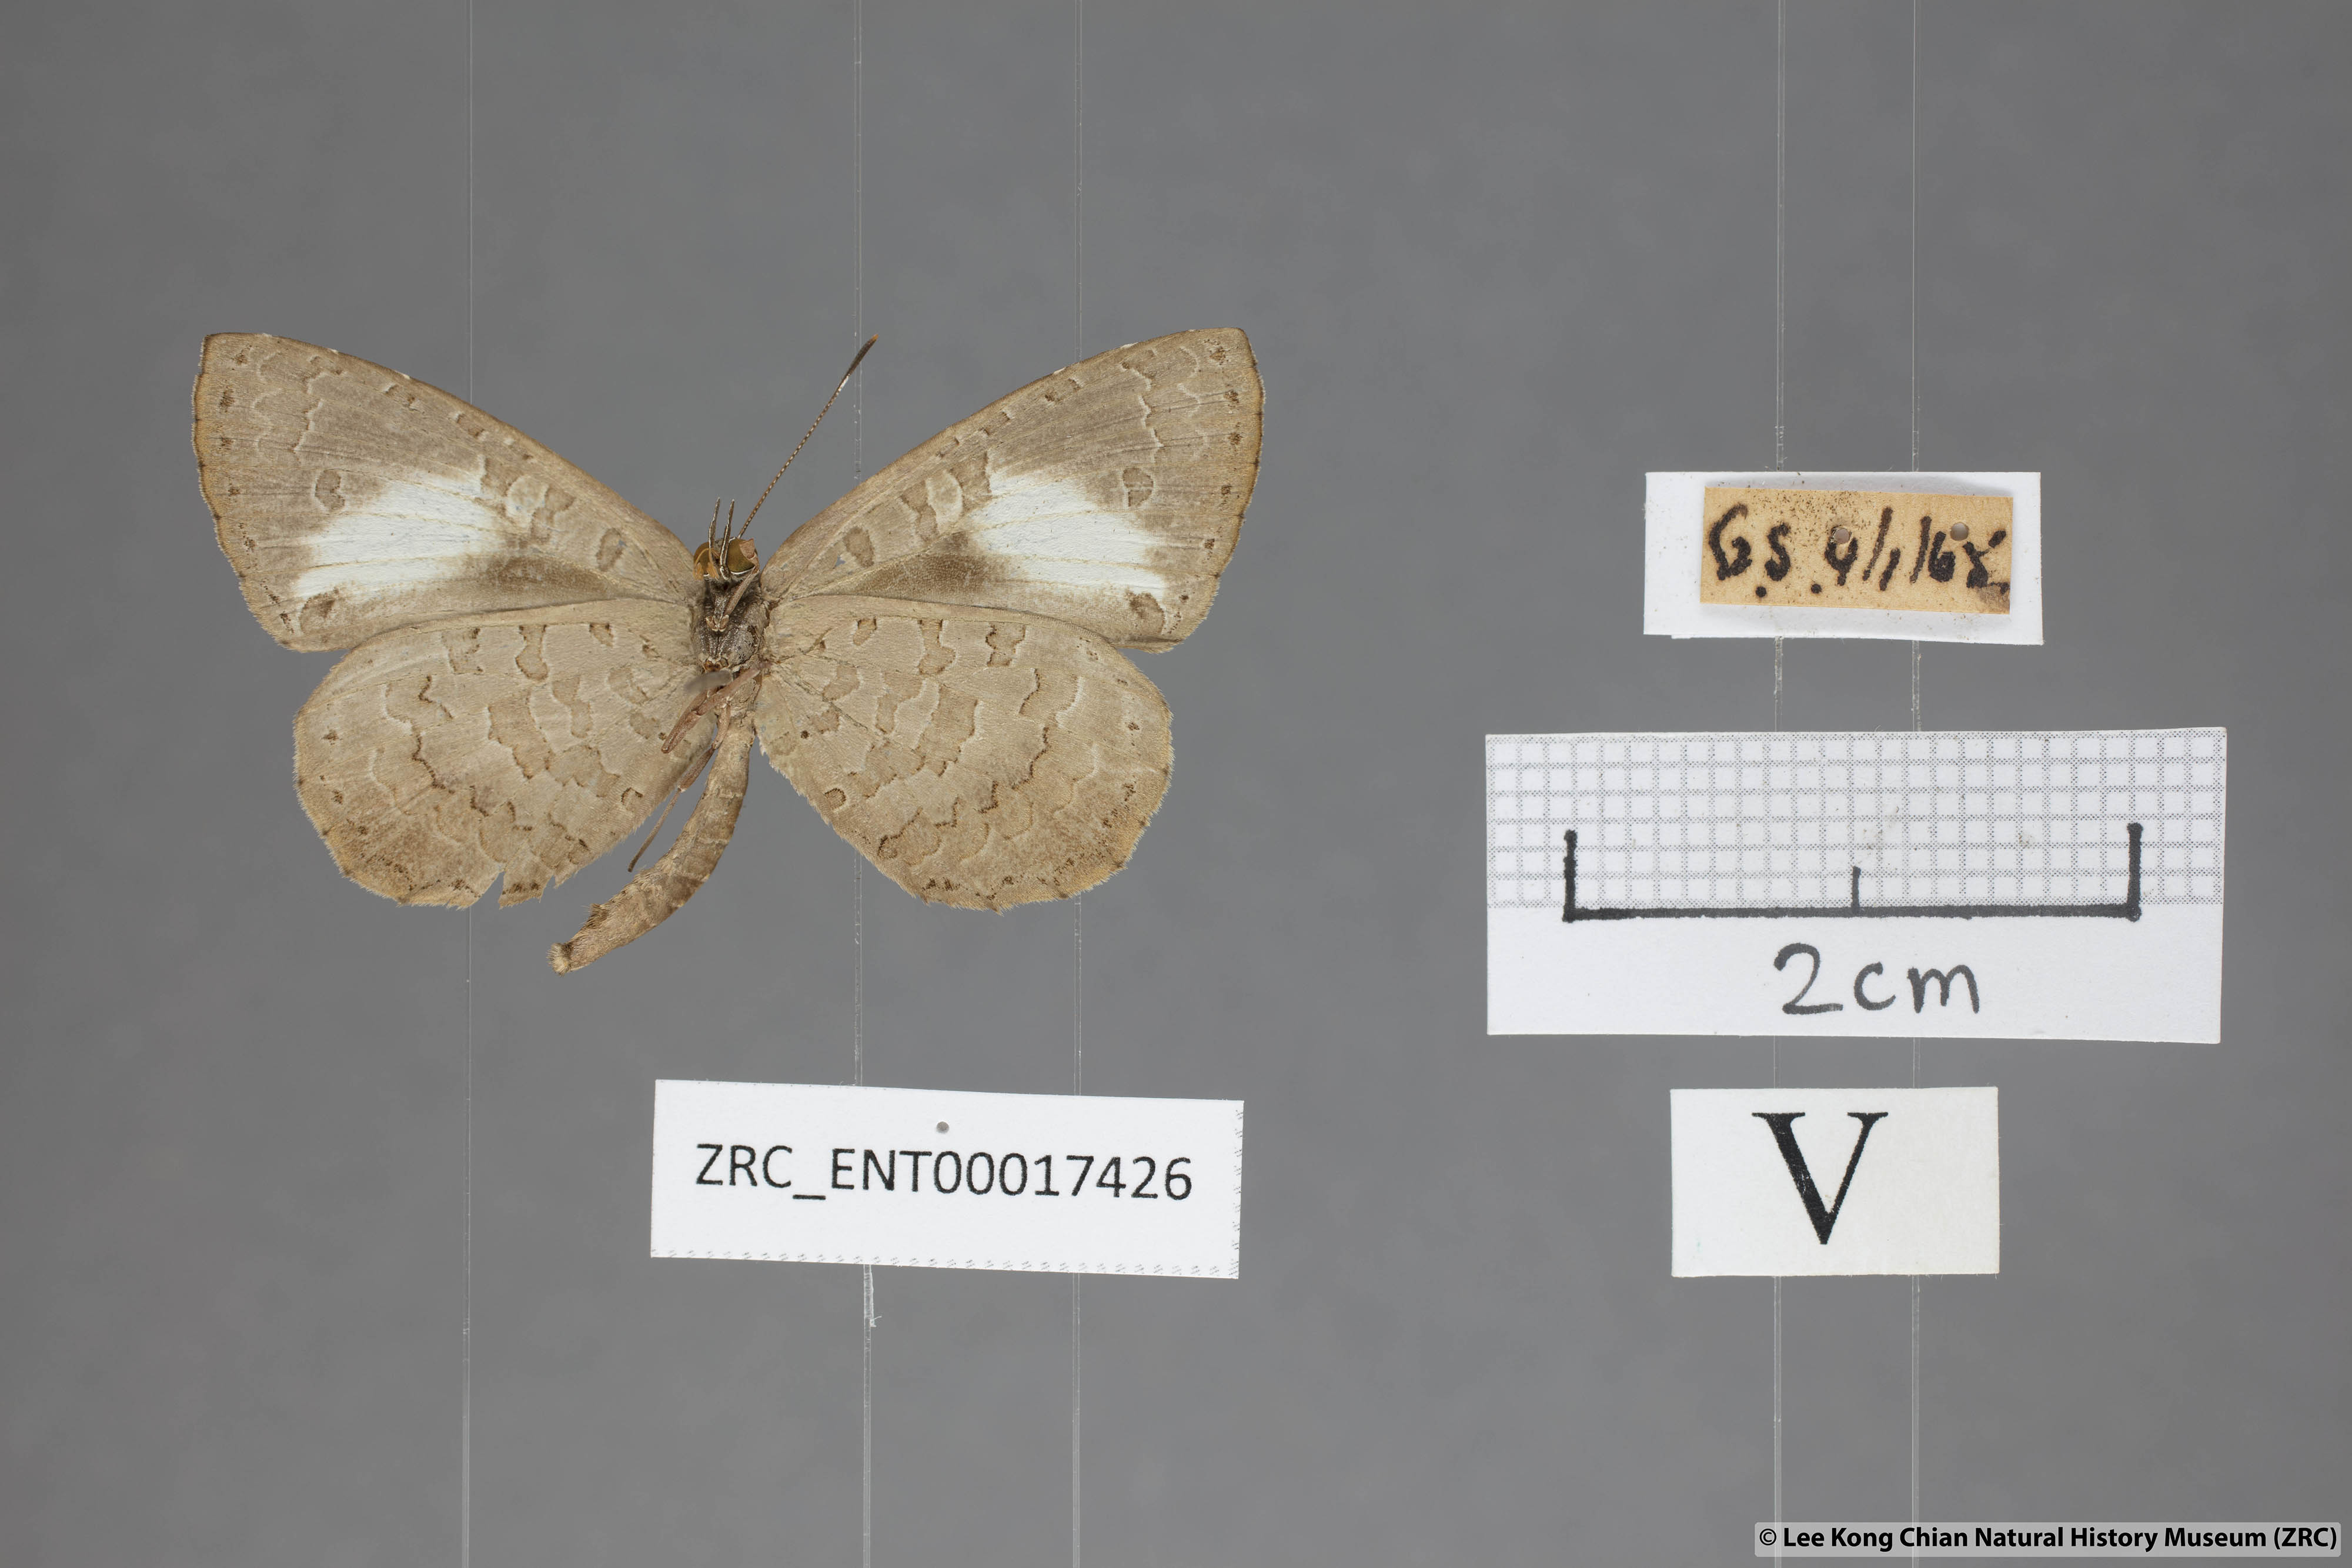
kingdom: Animalia
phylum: Arthropoda
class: Insecta
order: Lepidoptera
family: Lycaenidae
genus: Miletus
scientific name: Miletus biggsii
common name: Bigg's brownie
